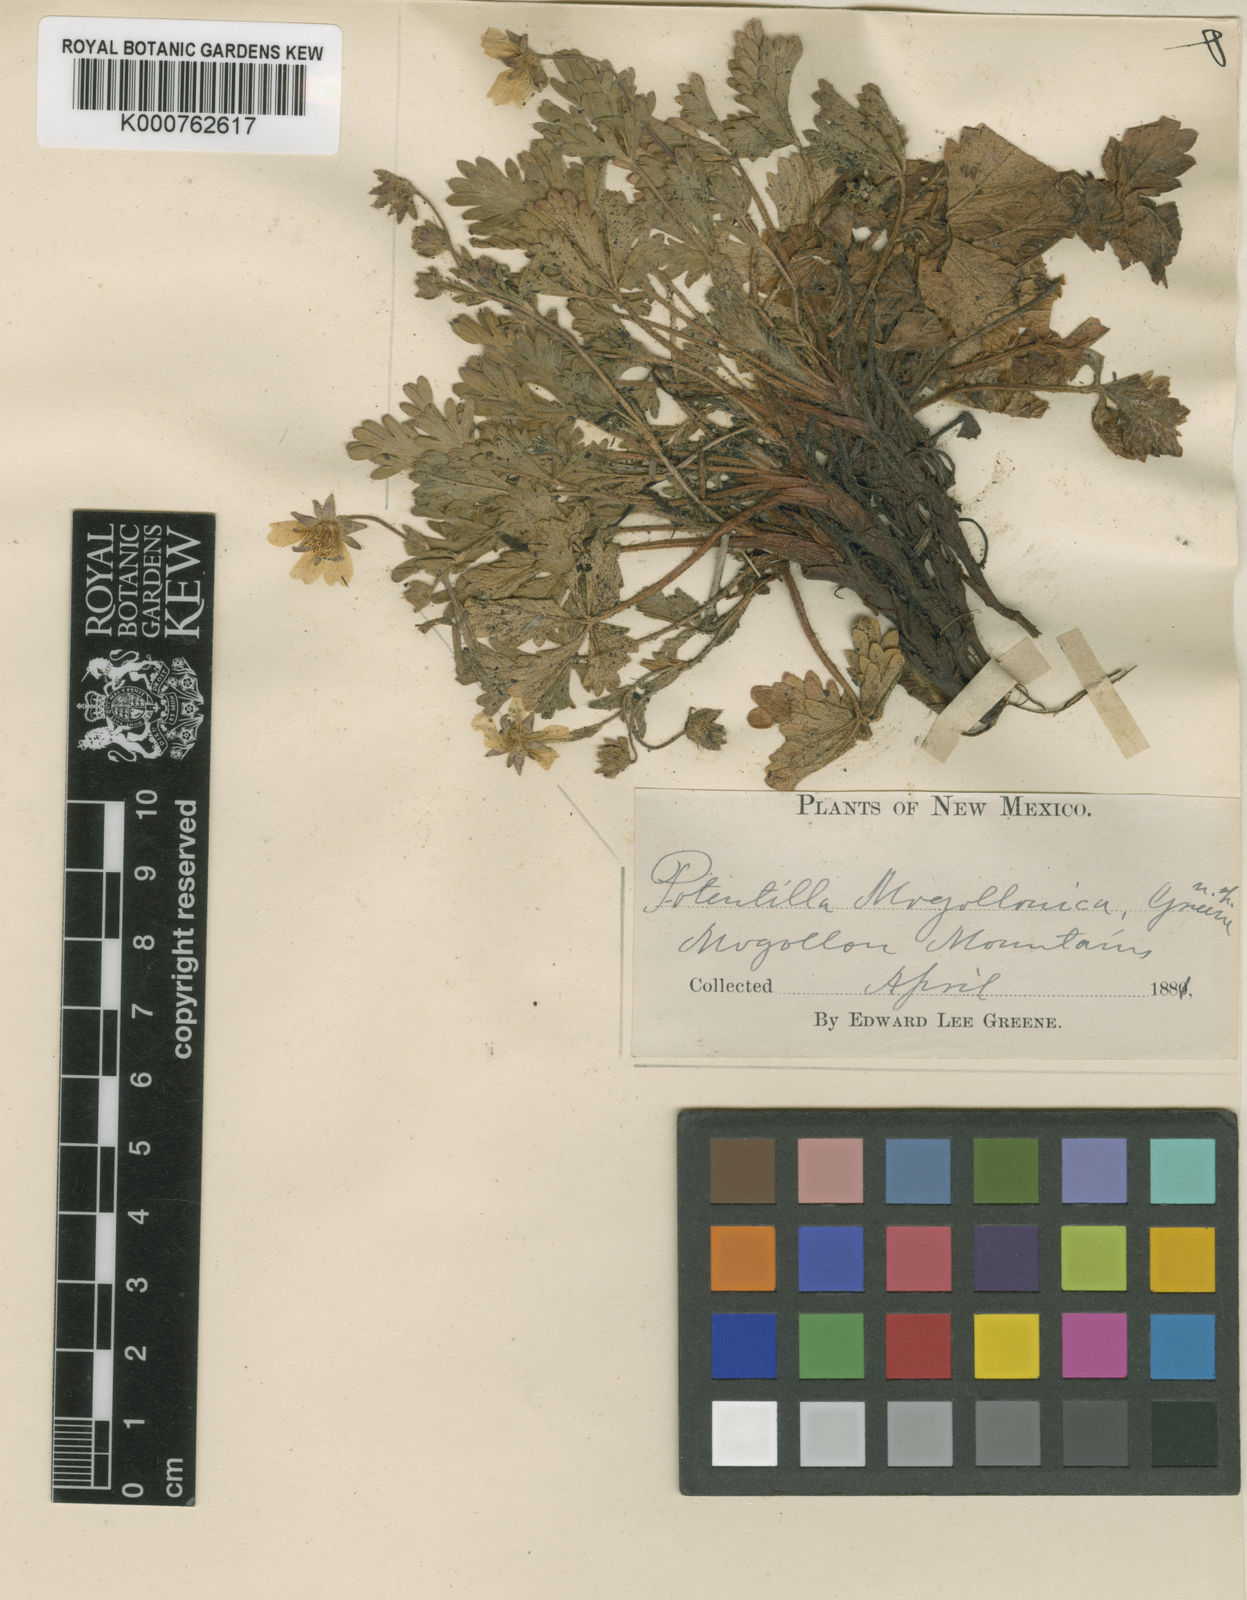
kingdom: Plantae
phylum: Tracheophyta
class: Magnoliopsida
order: Rosales
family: Rosaceae
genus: Potentilla
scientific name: Potentilla mogollonica
